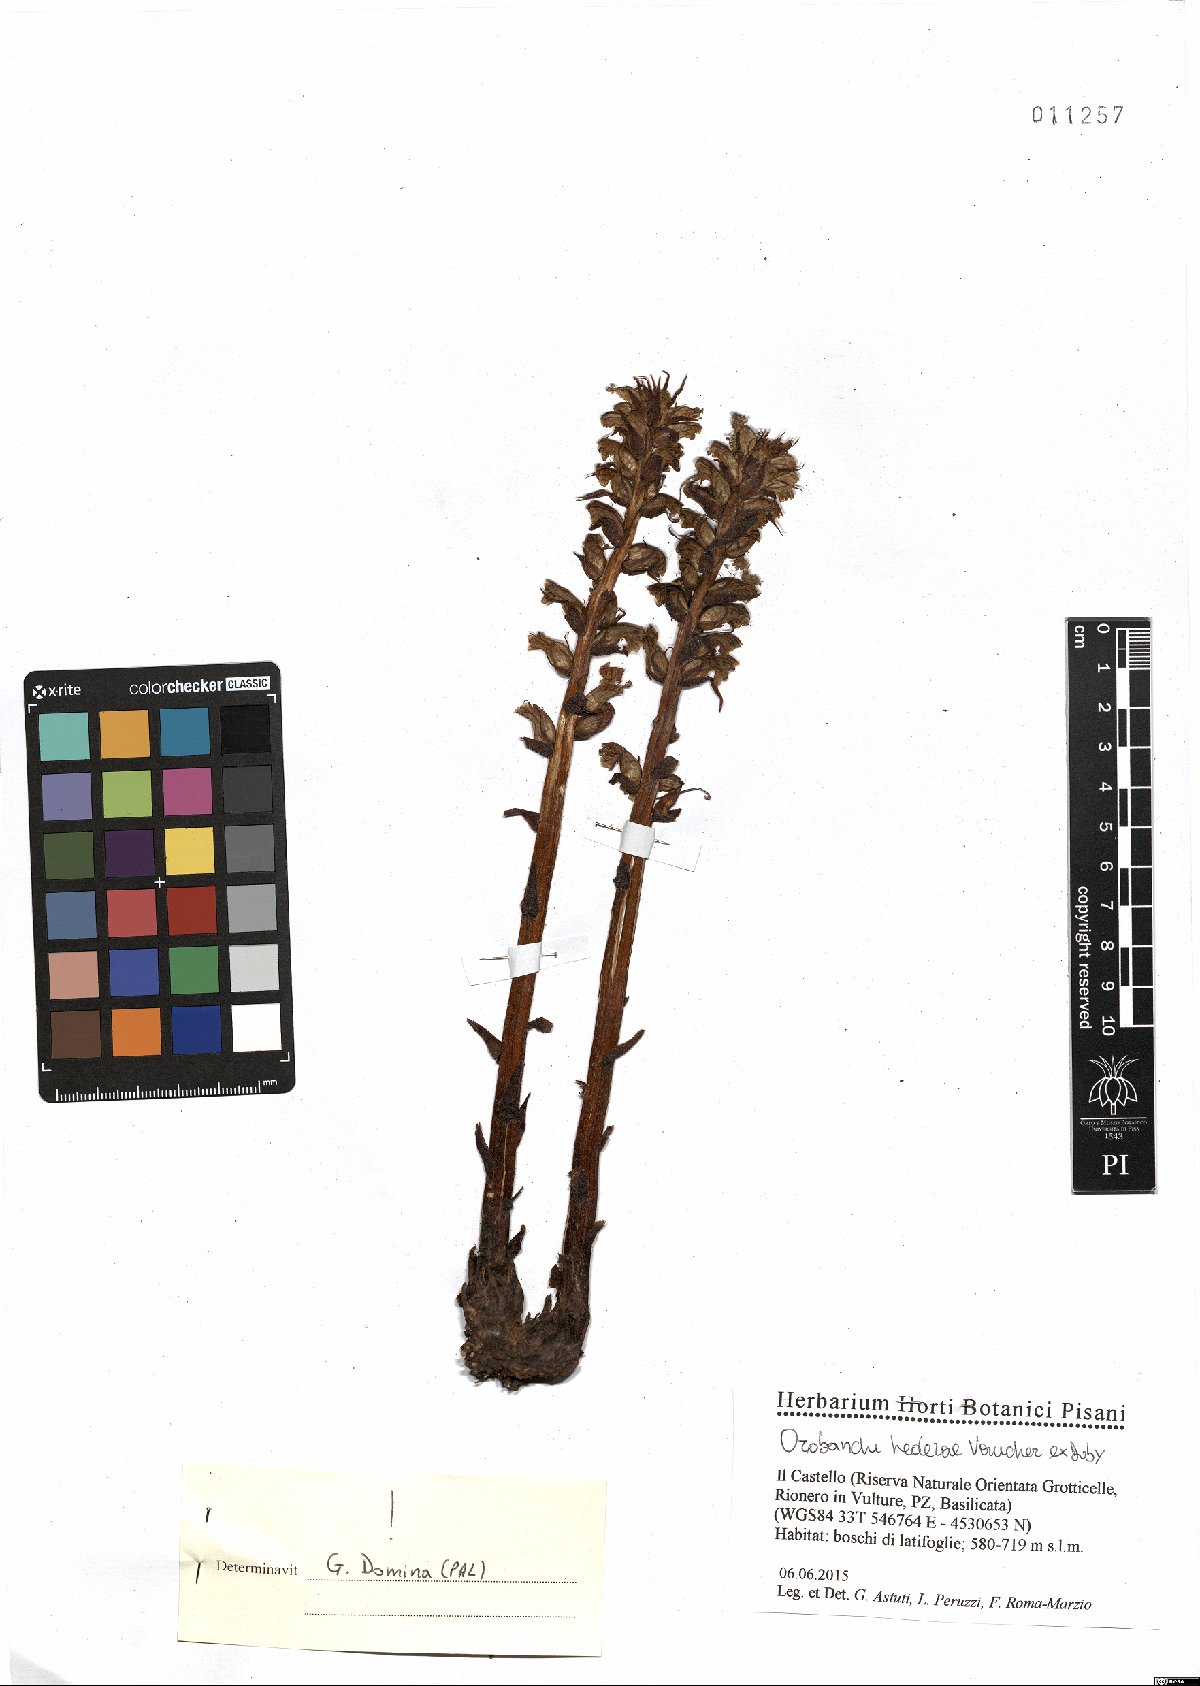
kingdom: Plantae
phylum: Tracheophyta
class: Magnoliopsida
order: Lamiales
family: Orobanchaceae
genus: Orobanche
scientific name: Orobanche hederae
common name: Ivy broomrape
